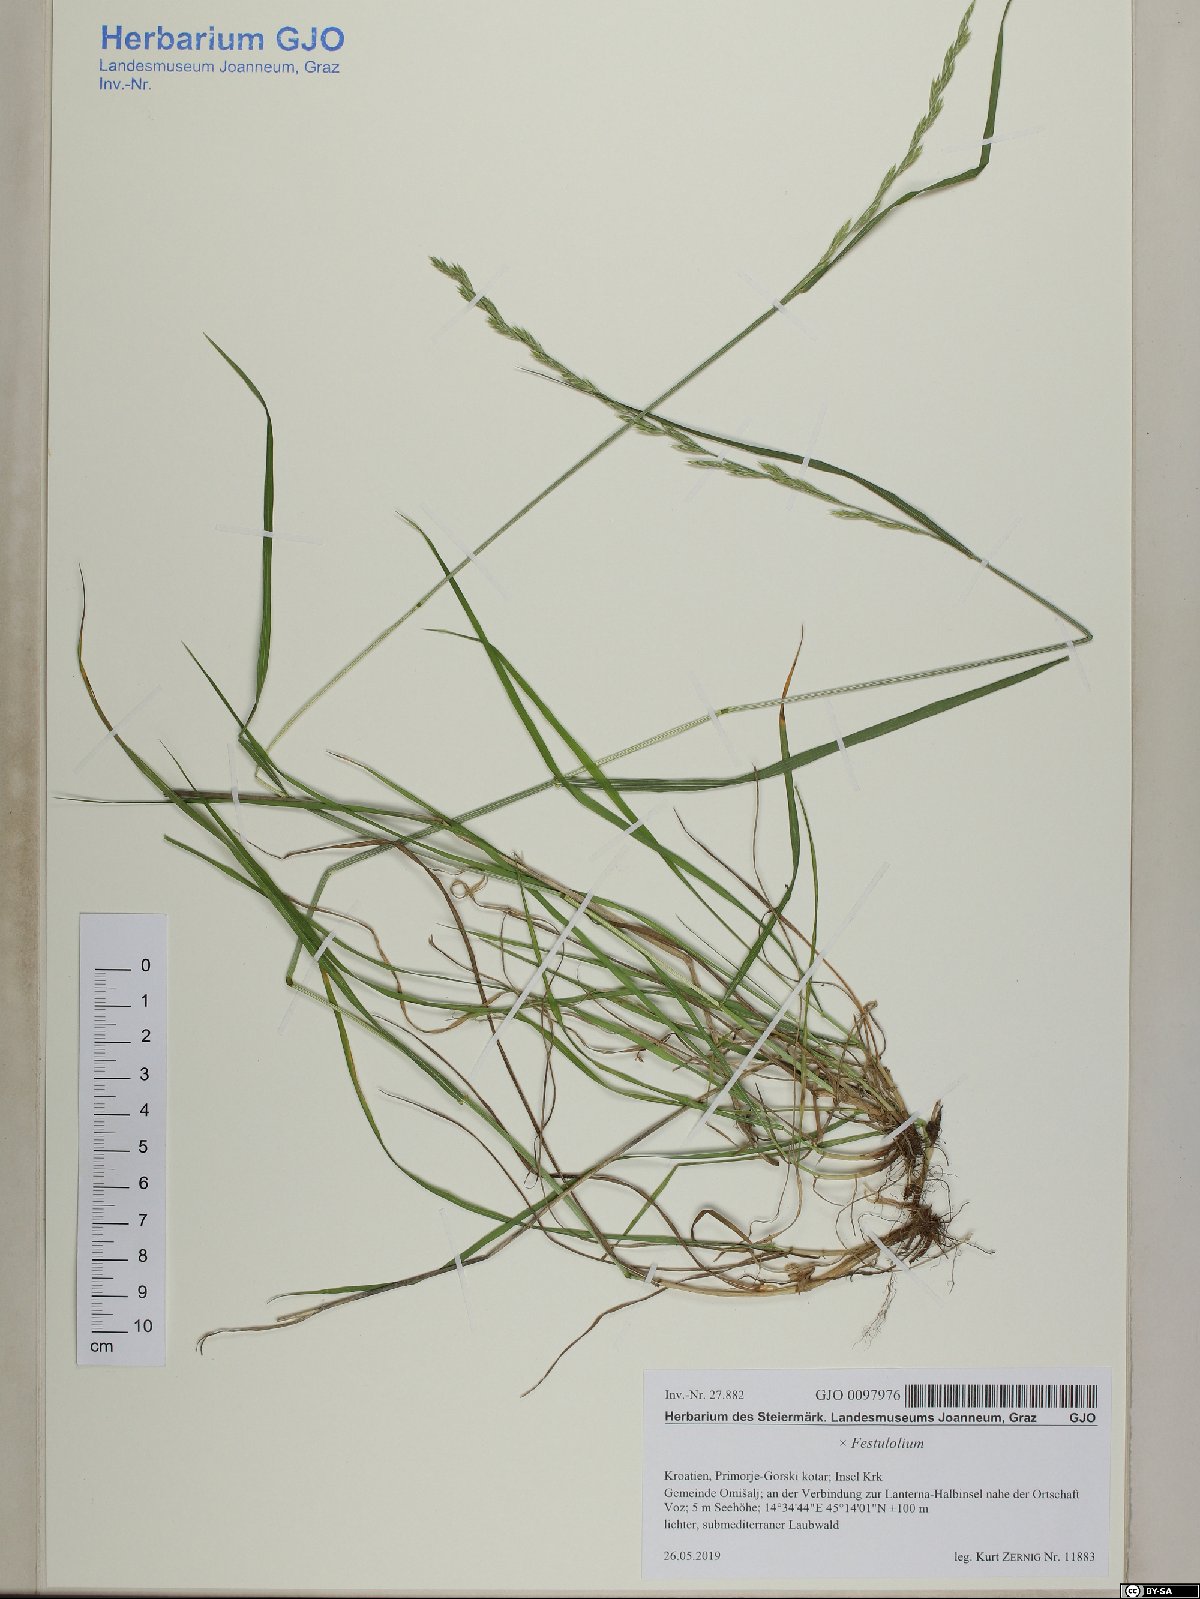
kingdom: Plantae
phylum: Tracheophyta
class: Liliopsida
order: Poales
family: Poaceae
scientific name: Poaceae
